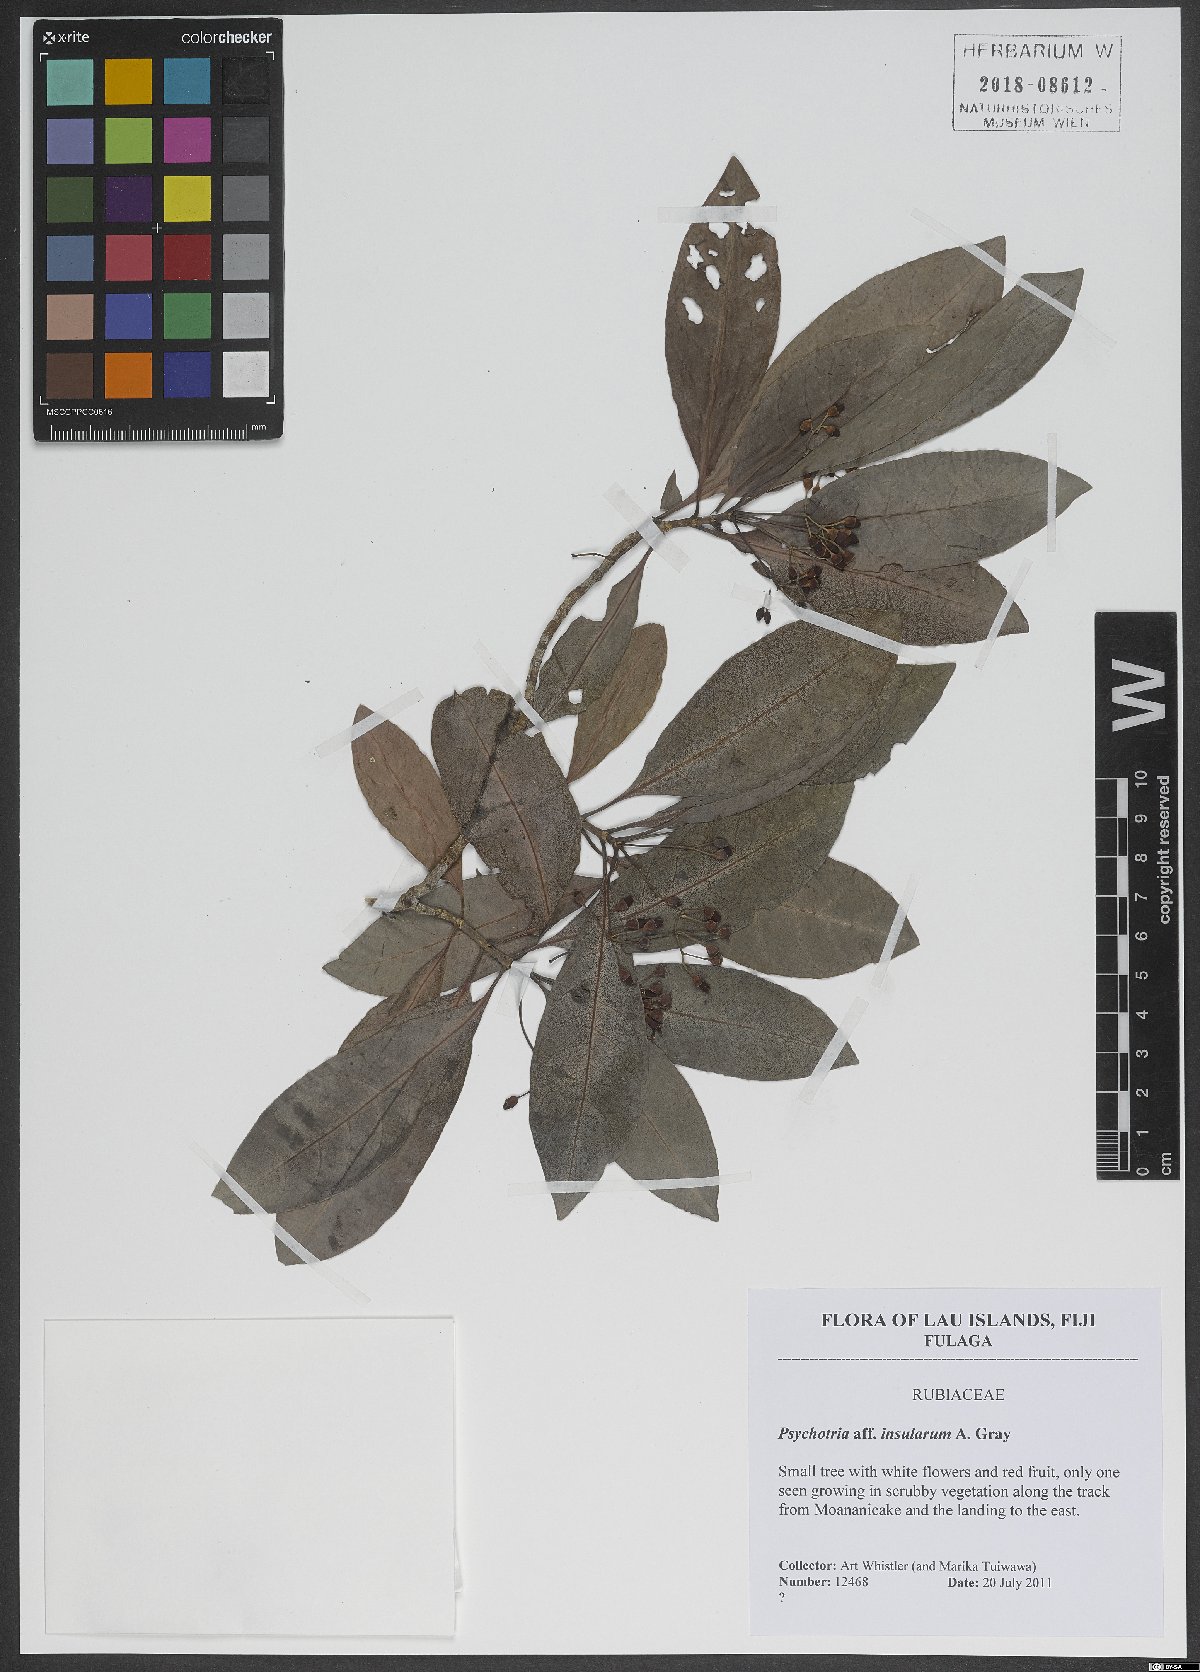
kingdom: Plantae
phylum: Tracheophyta
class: Magnoliopsida
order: Gentianales
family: Rubiaceae
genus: Psychotria
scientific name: Psychotria insularum
